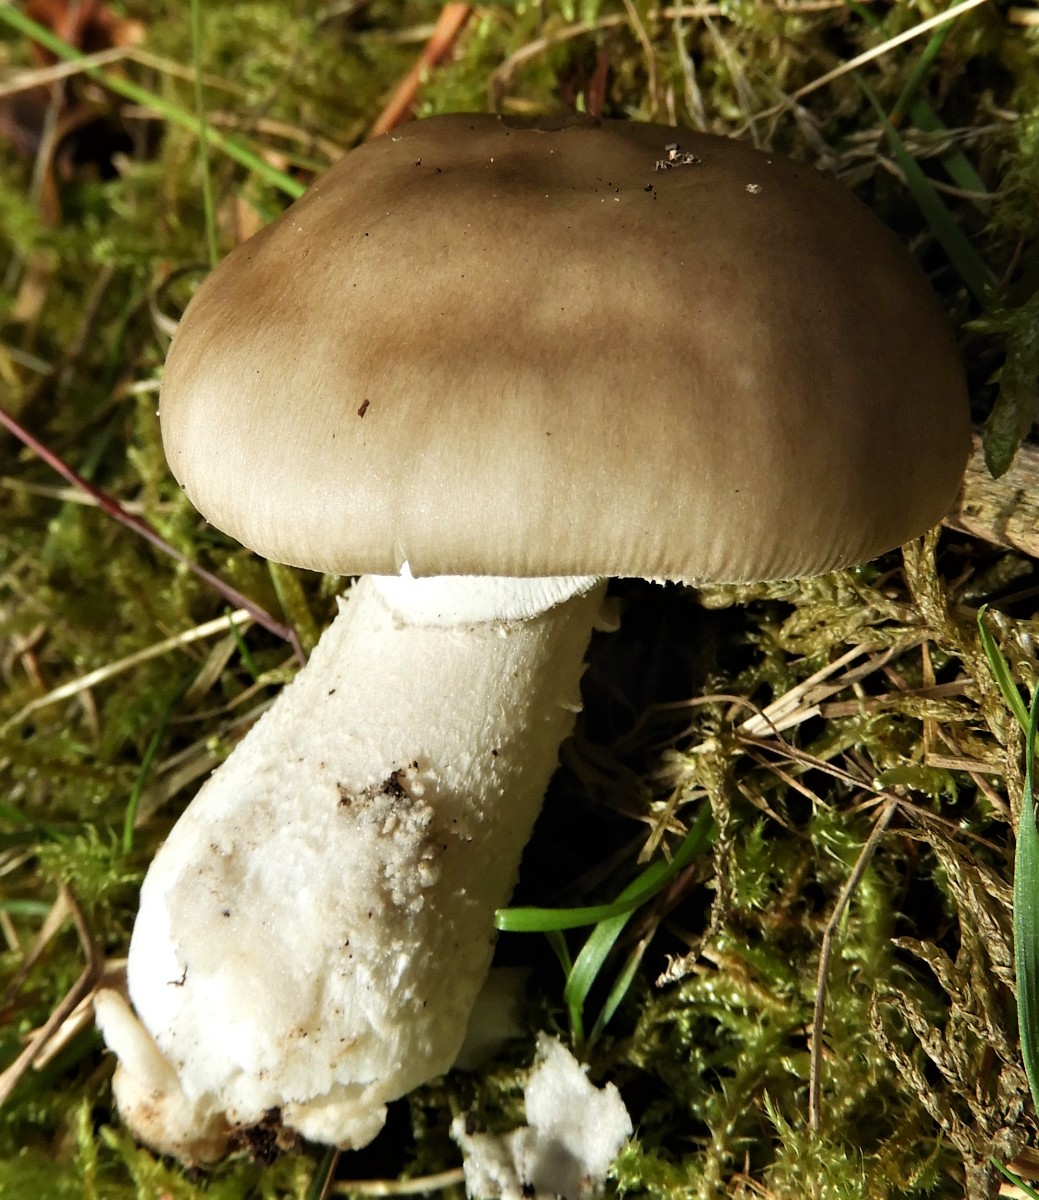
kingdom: Fungi
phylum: Basidiomycota
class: Agaricomycetes
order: Agaricales
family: Amanitaceae
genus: Amanita
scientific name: Amanita
